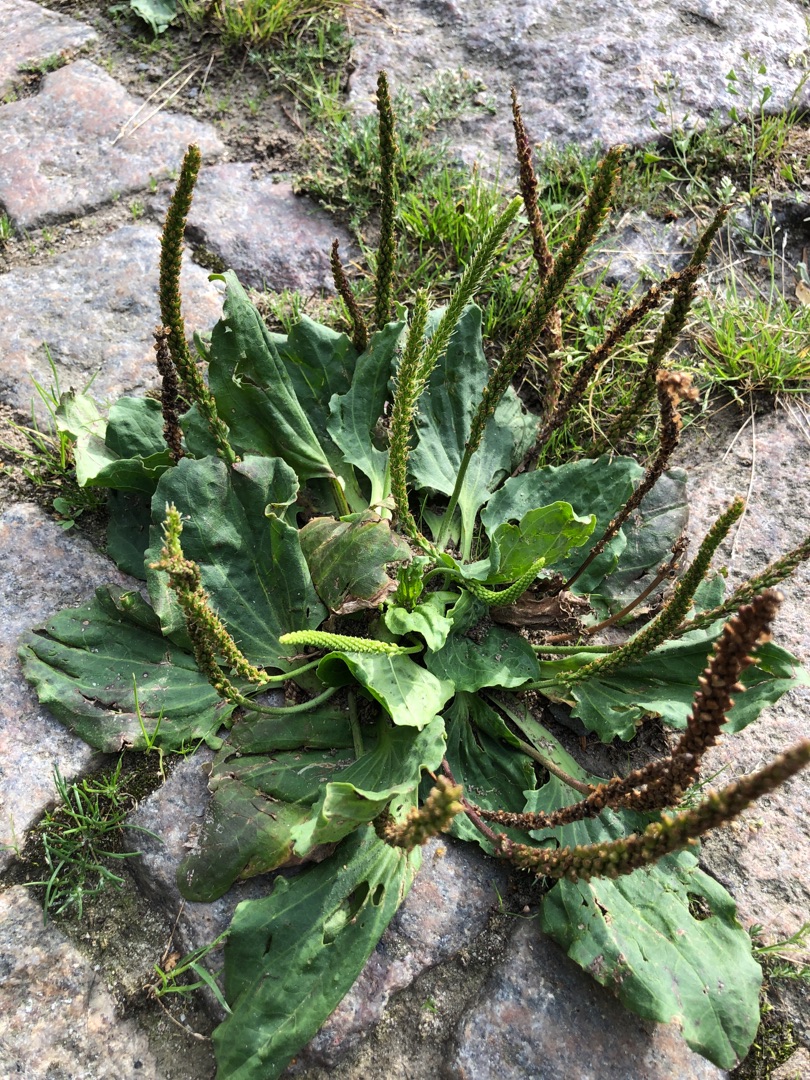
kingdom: Plantae
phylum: Tracheophyta
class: Magnoliopsida
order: Lamiales
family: Plantaginaceae
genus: Plantago
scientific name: Plantago major
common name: Glat vejbred
